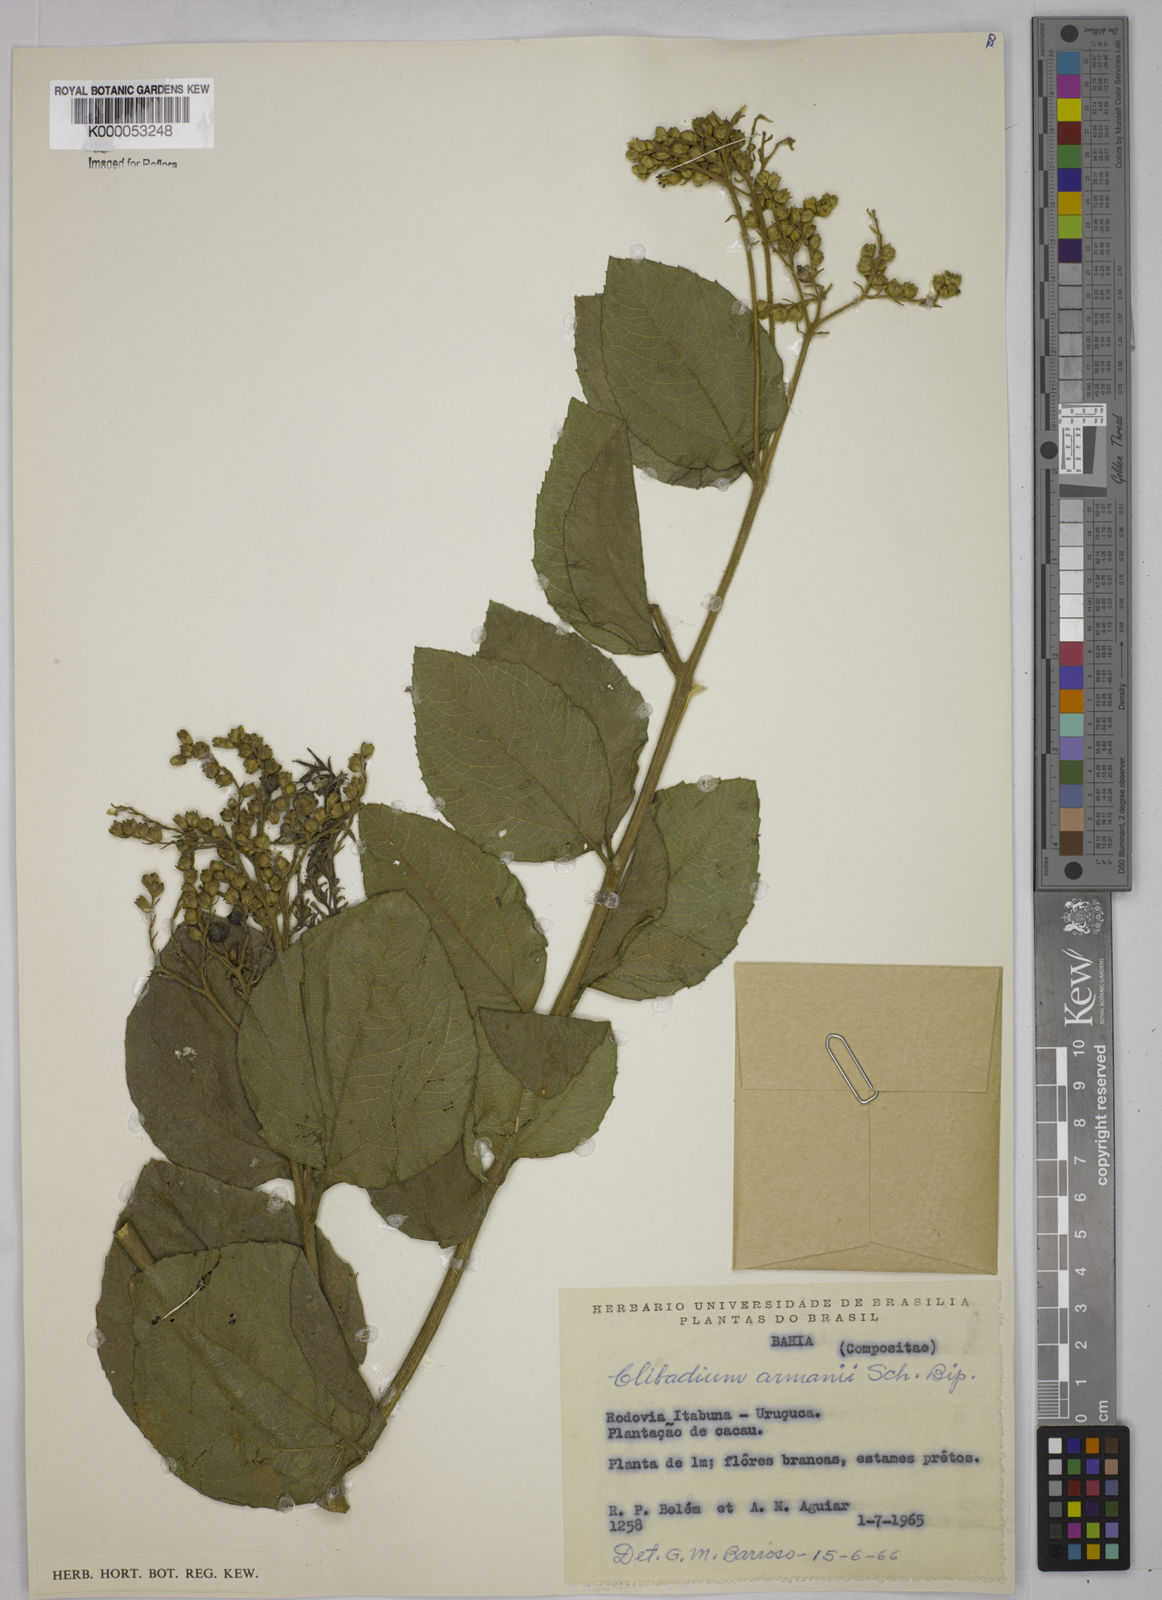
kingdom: Plantae
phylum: Tracheophyta
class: Magnoliopsida
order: Asterales
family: Asteraceae
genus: Clibadium
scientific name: Clibadium armanii
